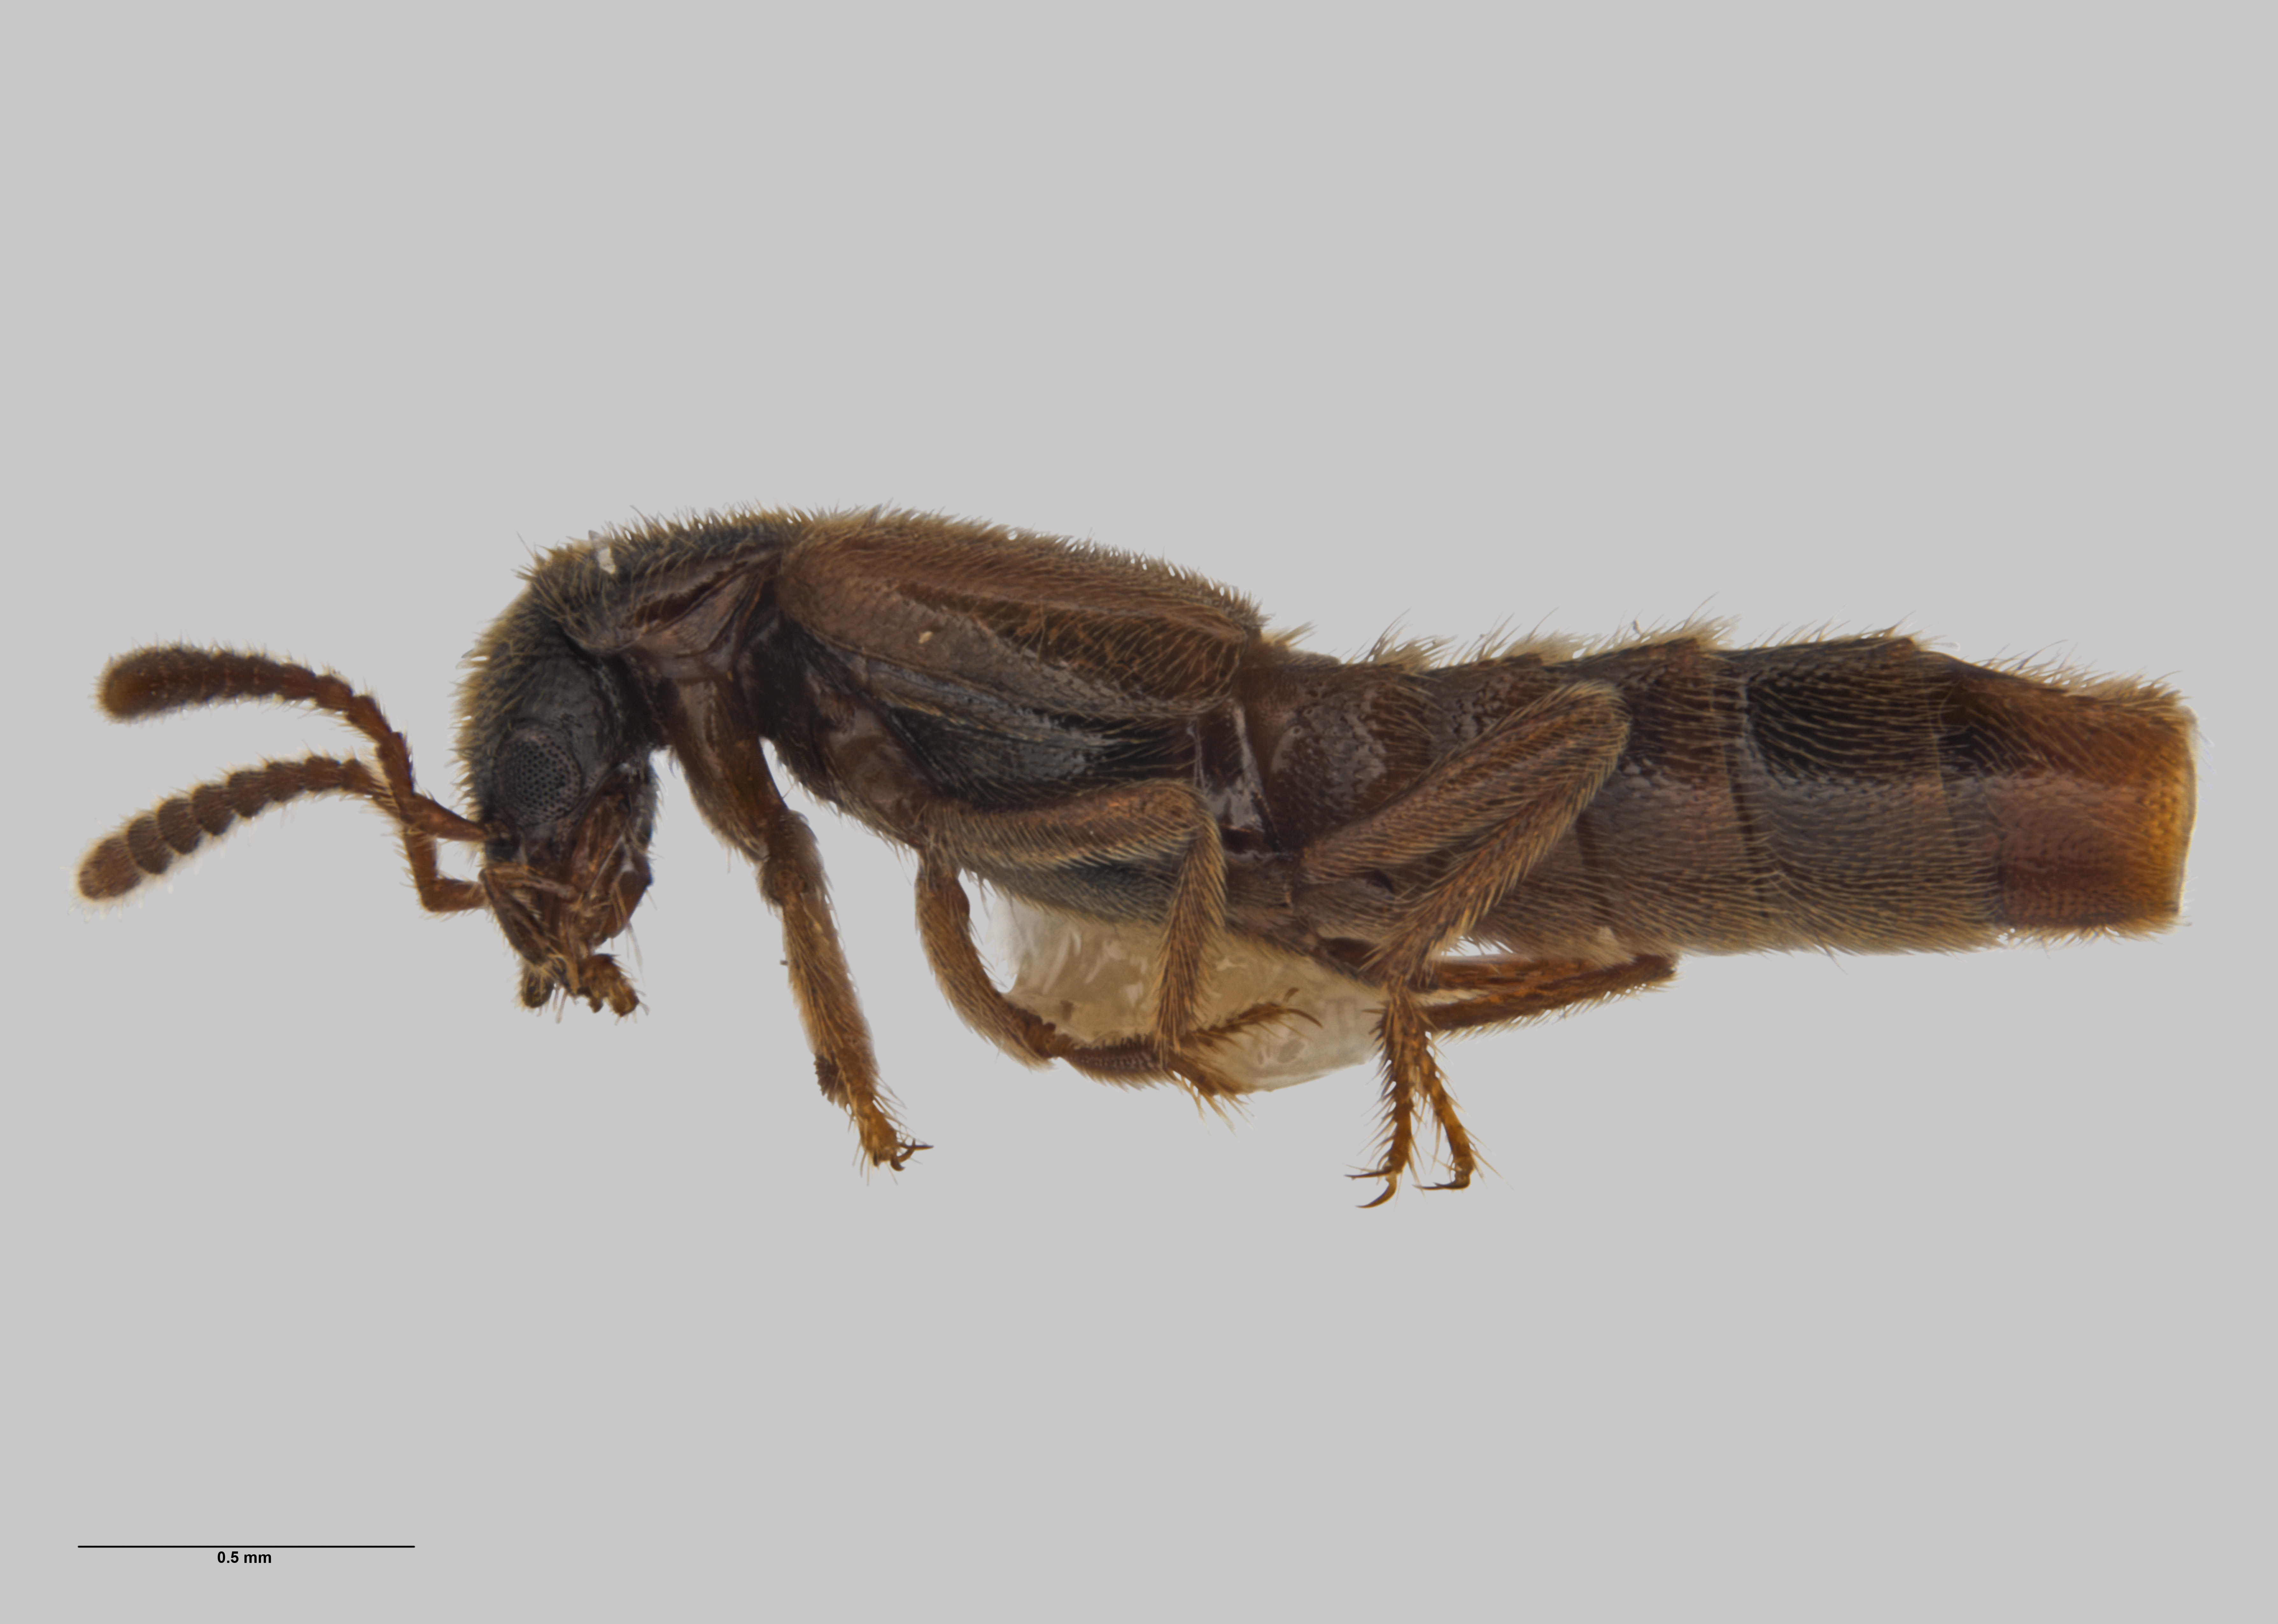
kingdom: Animalia
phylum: Arthropoda
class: Insecta
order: Coleoptera
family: Staphylinidae
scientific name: Staphylinidae
